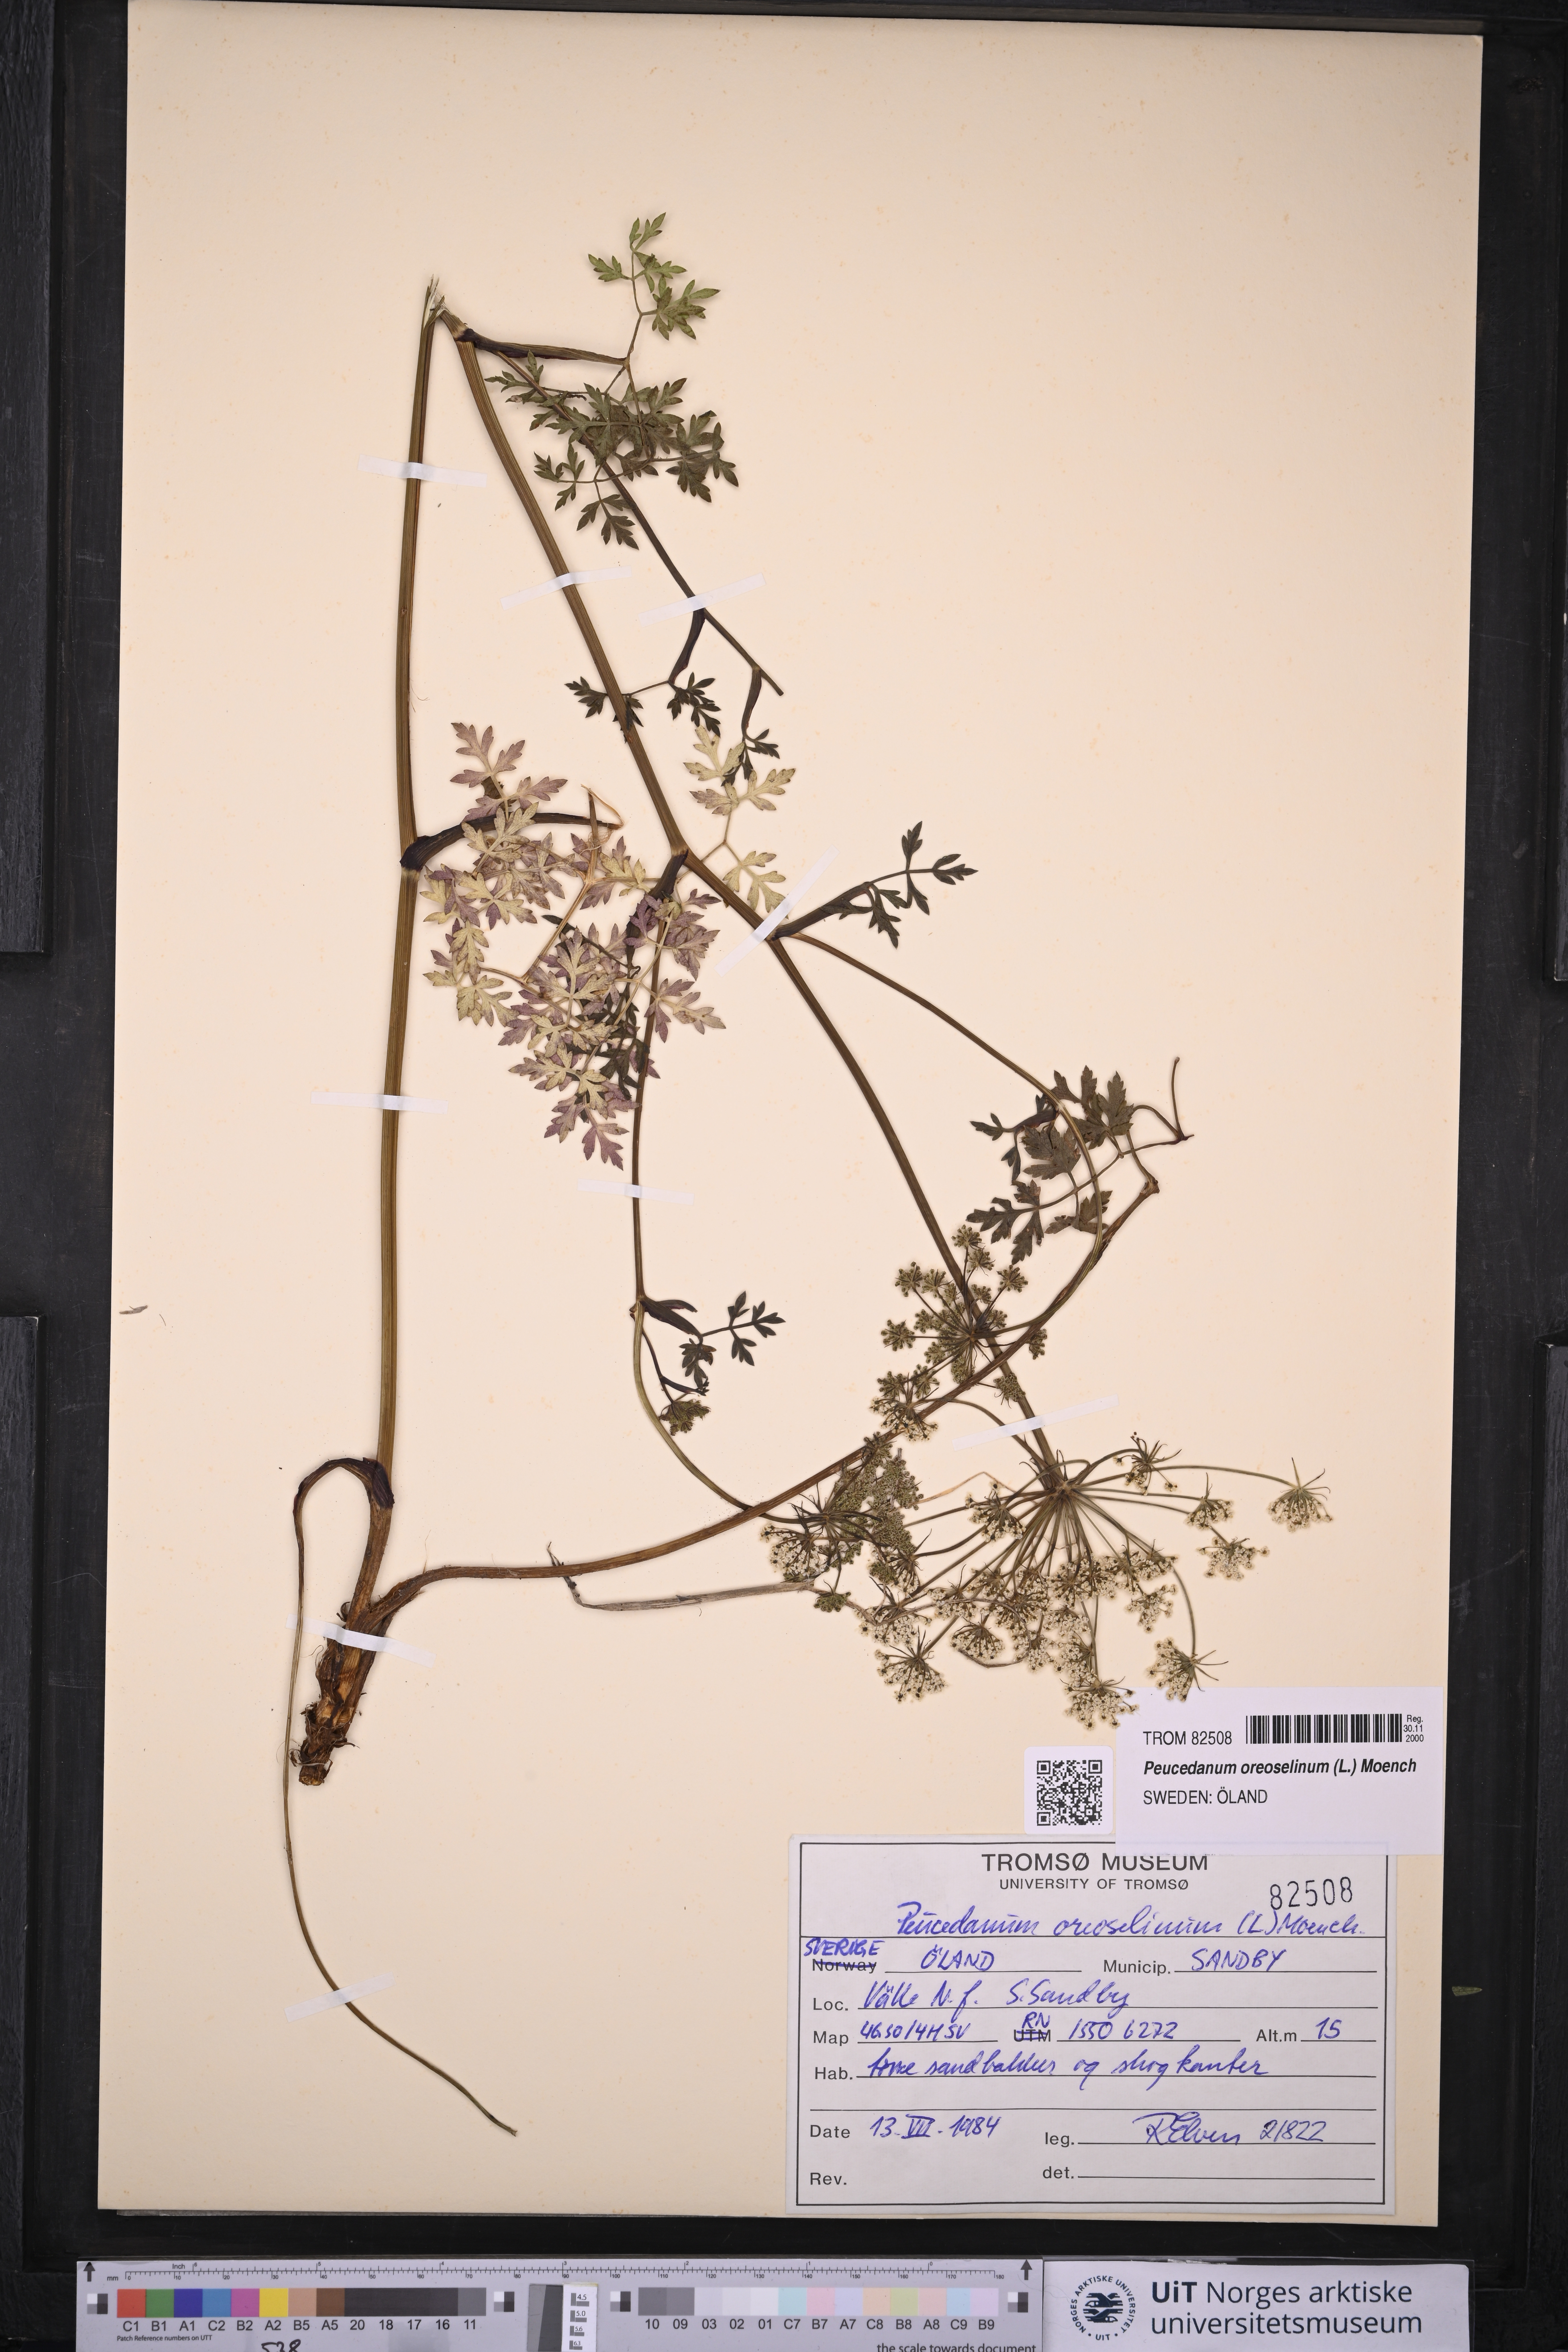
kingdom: Plantae
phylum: Tracheophyta
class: Magnoliopsida
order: Apiales
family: Apiaceae
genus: Oreoselinum
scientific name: Oreoselinum nigrum
